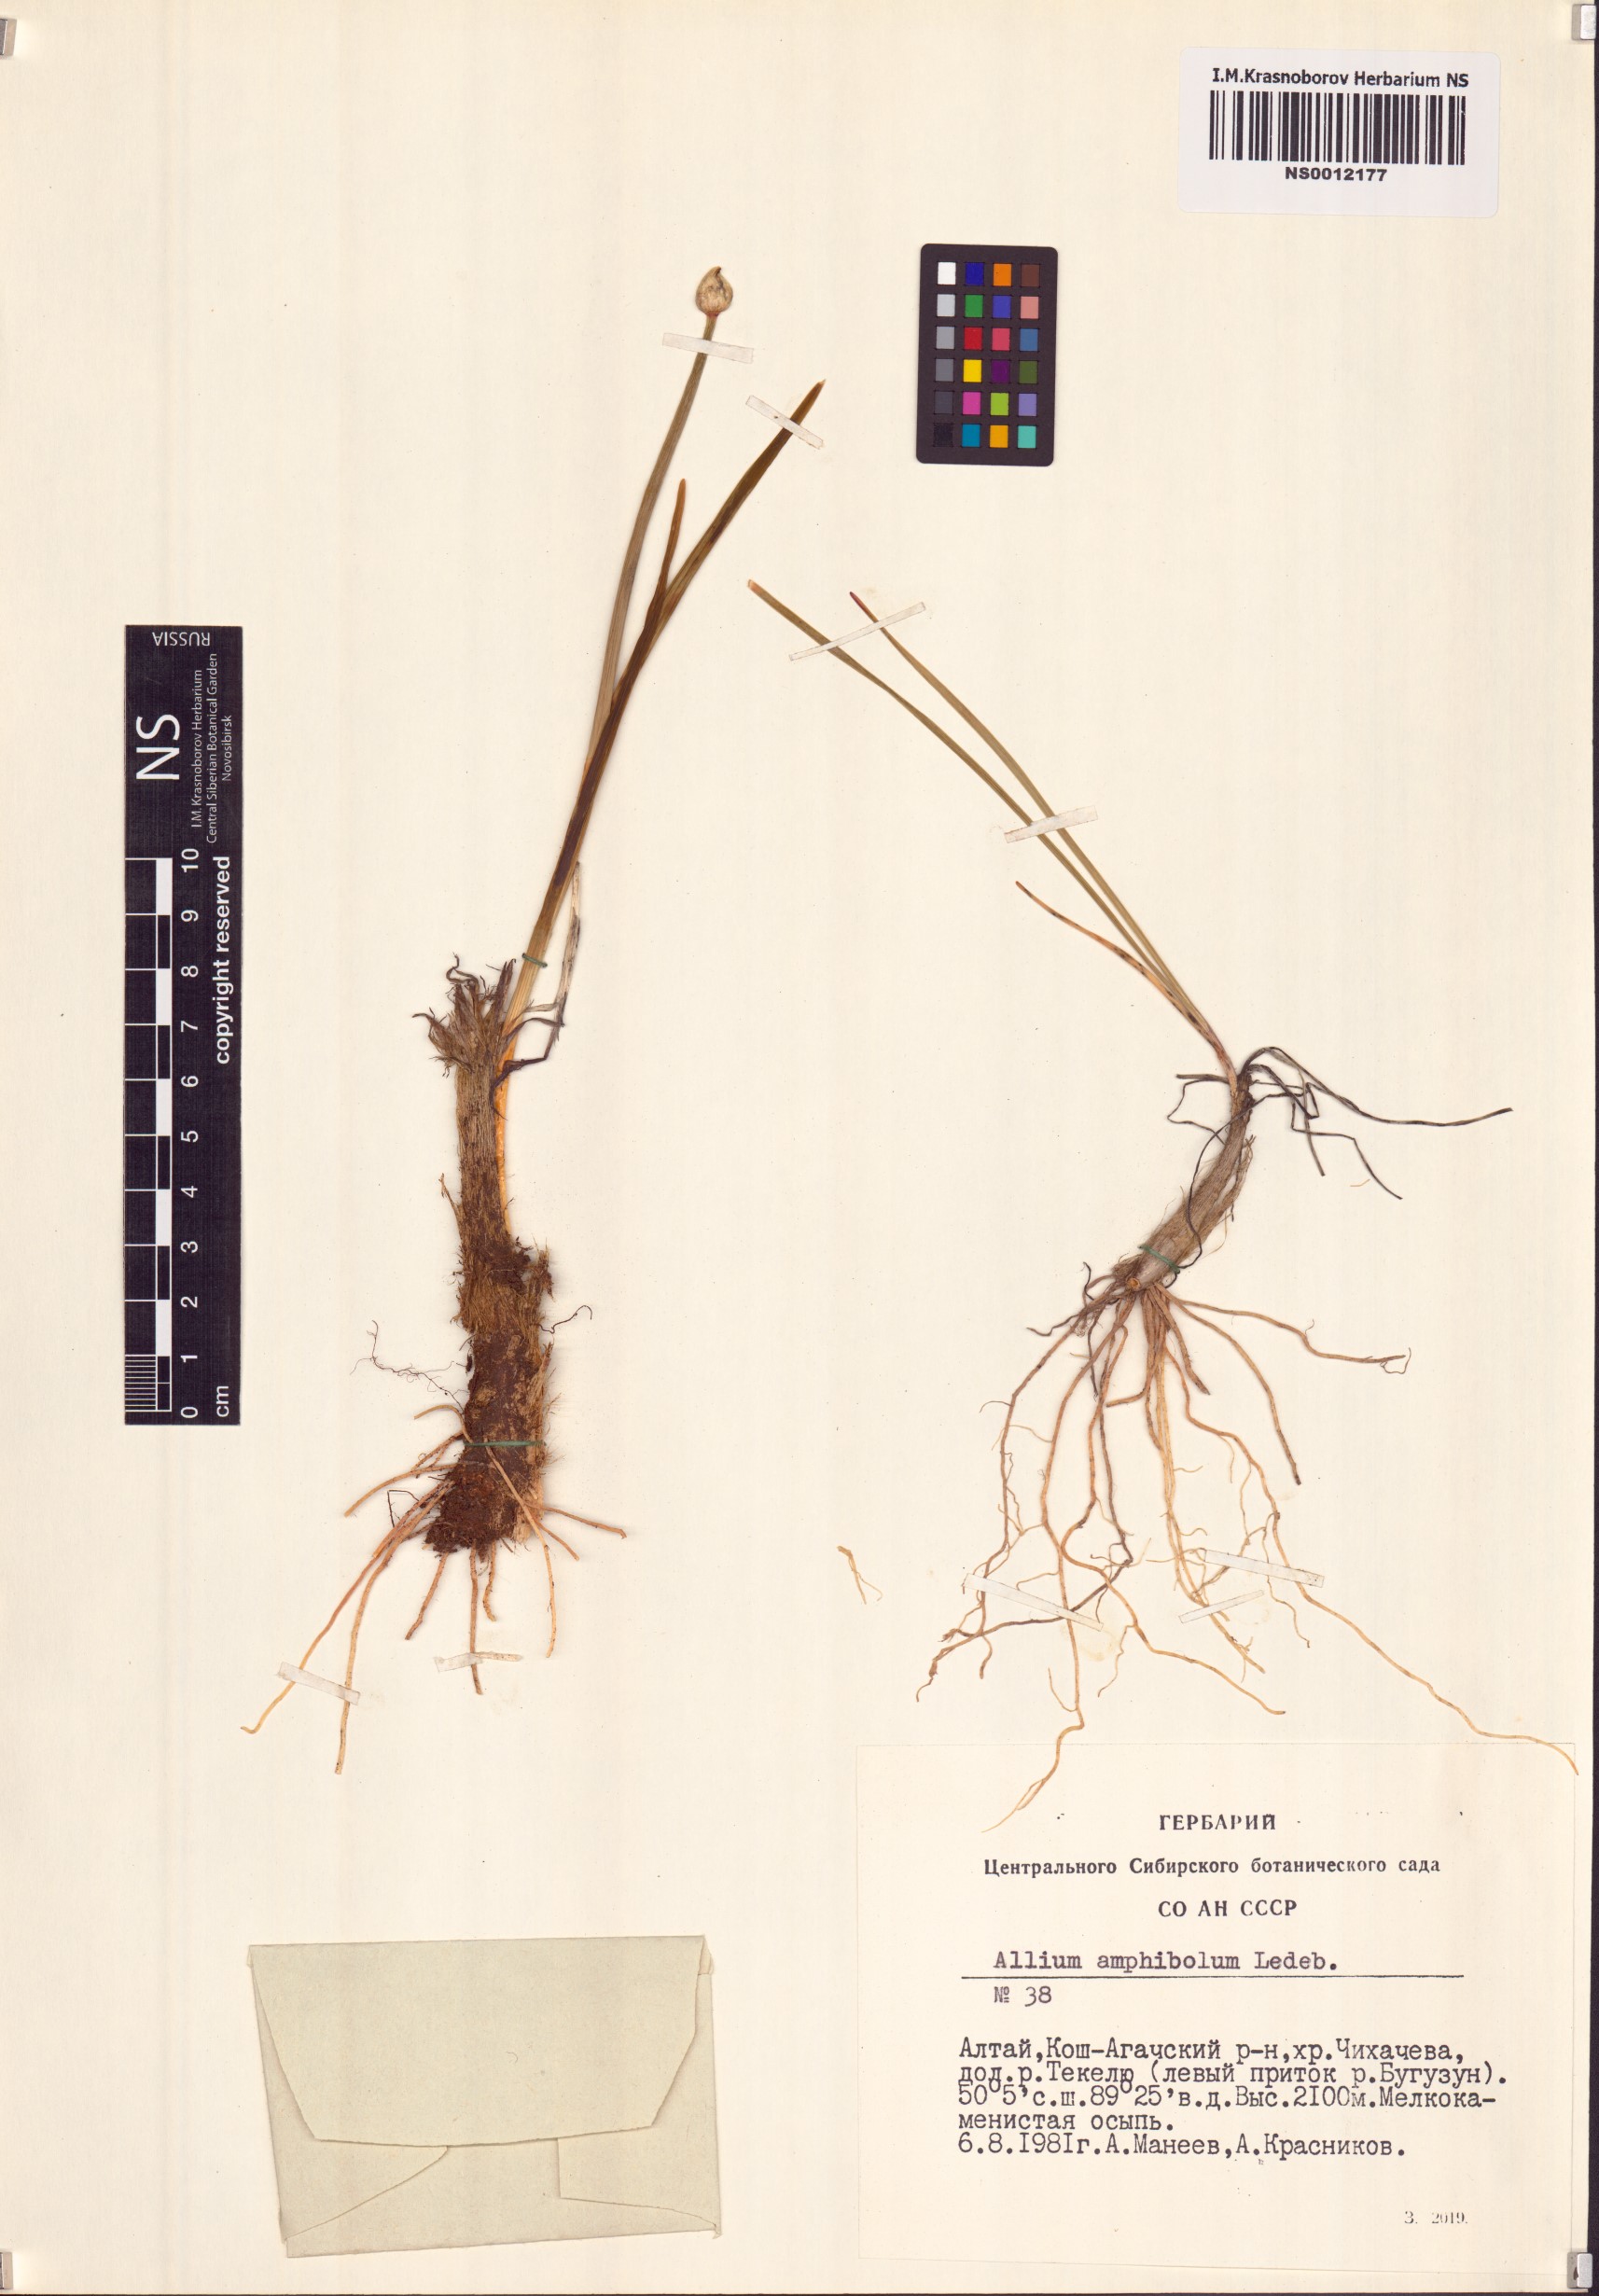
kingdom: Plantae
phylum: Tracheophyta
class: Liliopsida
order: Asparagales
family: Amaryllidaceae
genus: Allium
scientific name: Allium amphibolum
